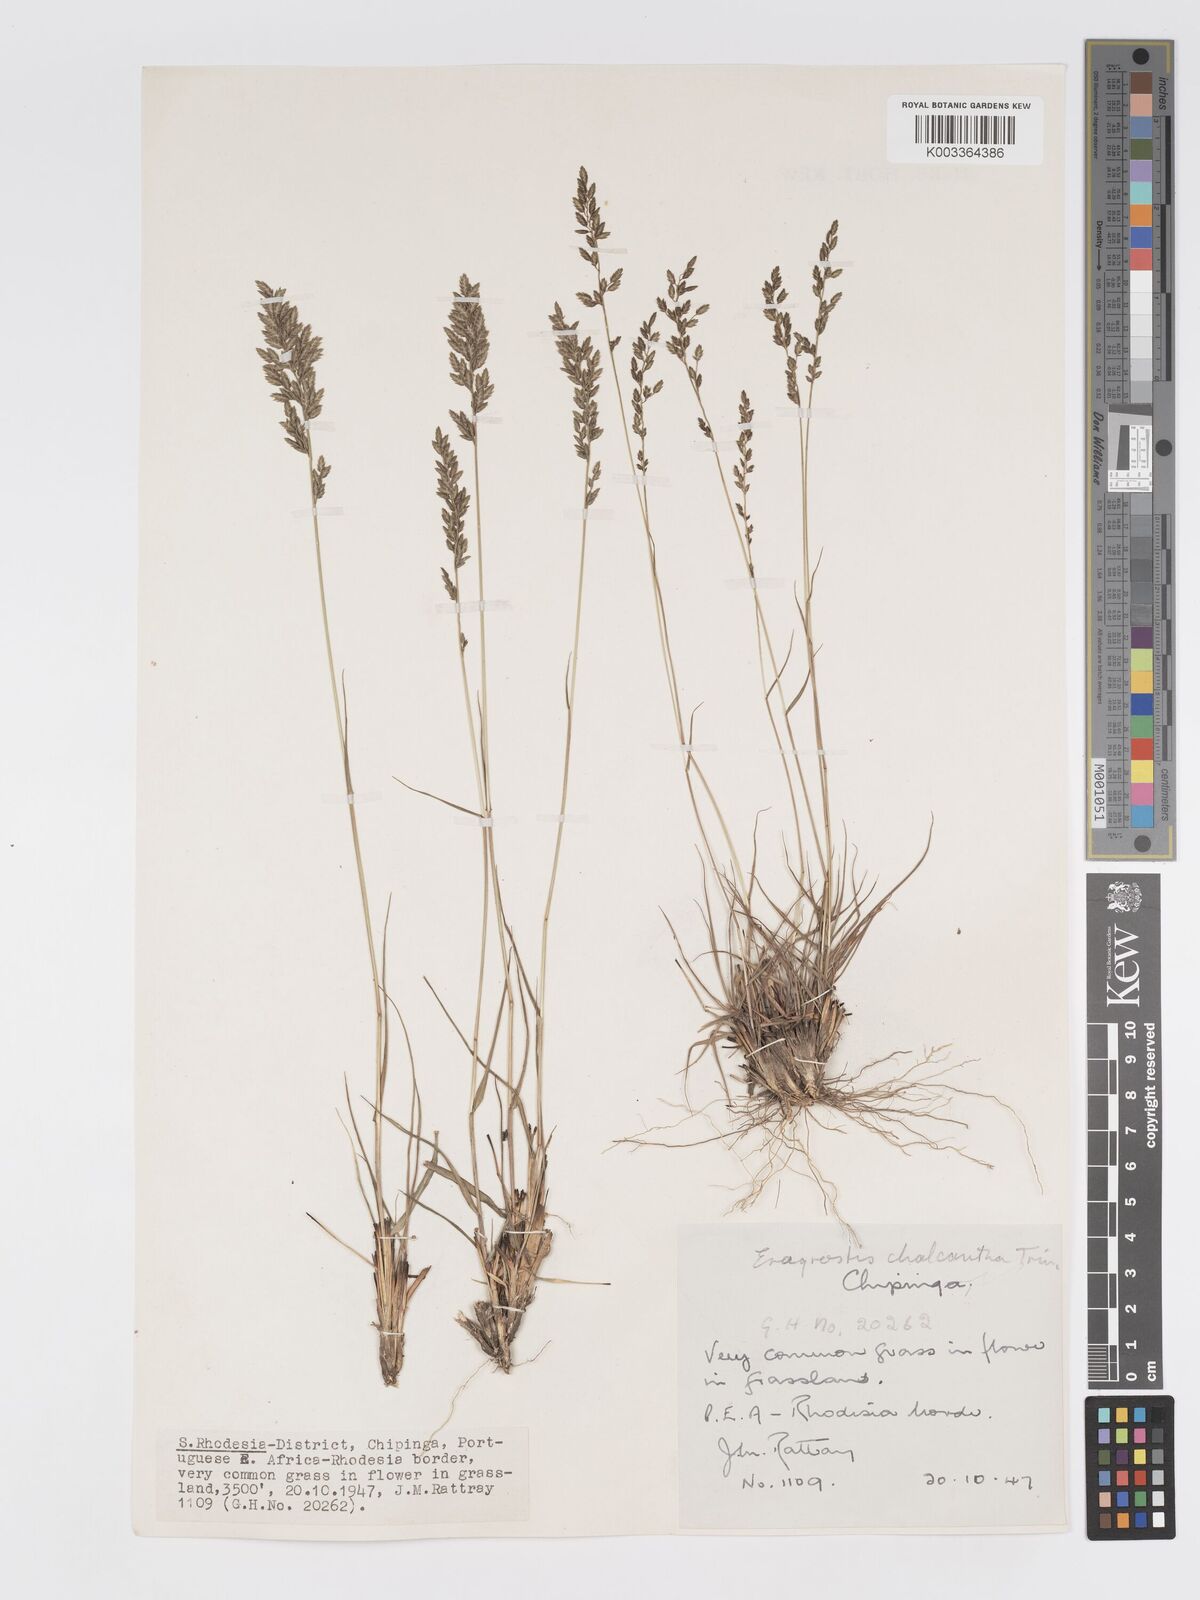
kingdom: Plantae
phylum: Tracheophyta
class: Liliopsida
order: Poales
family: Poaceae
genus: Eragrostis
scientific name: Eragrostis racemosa
